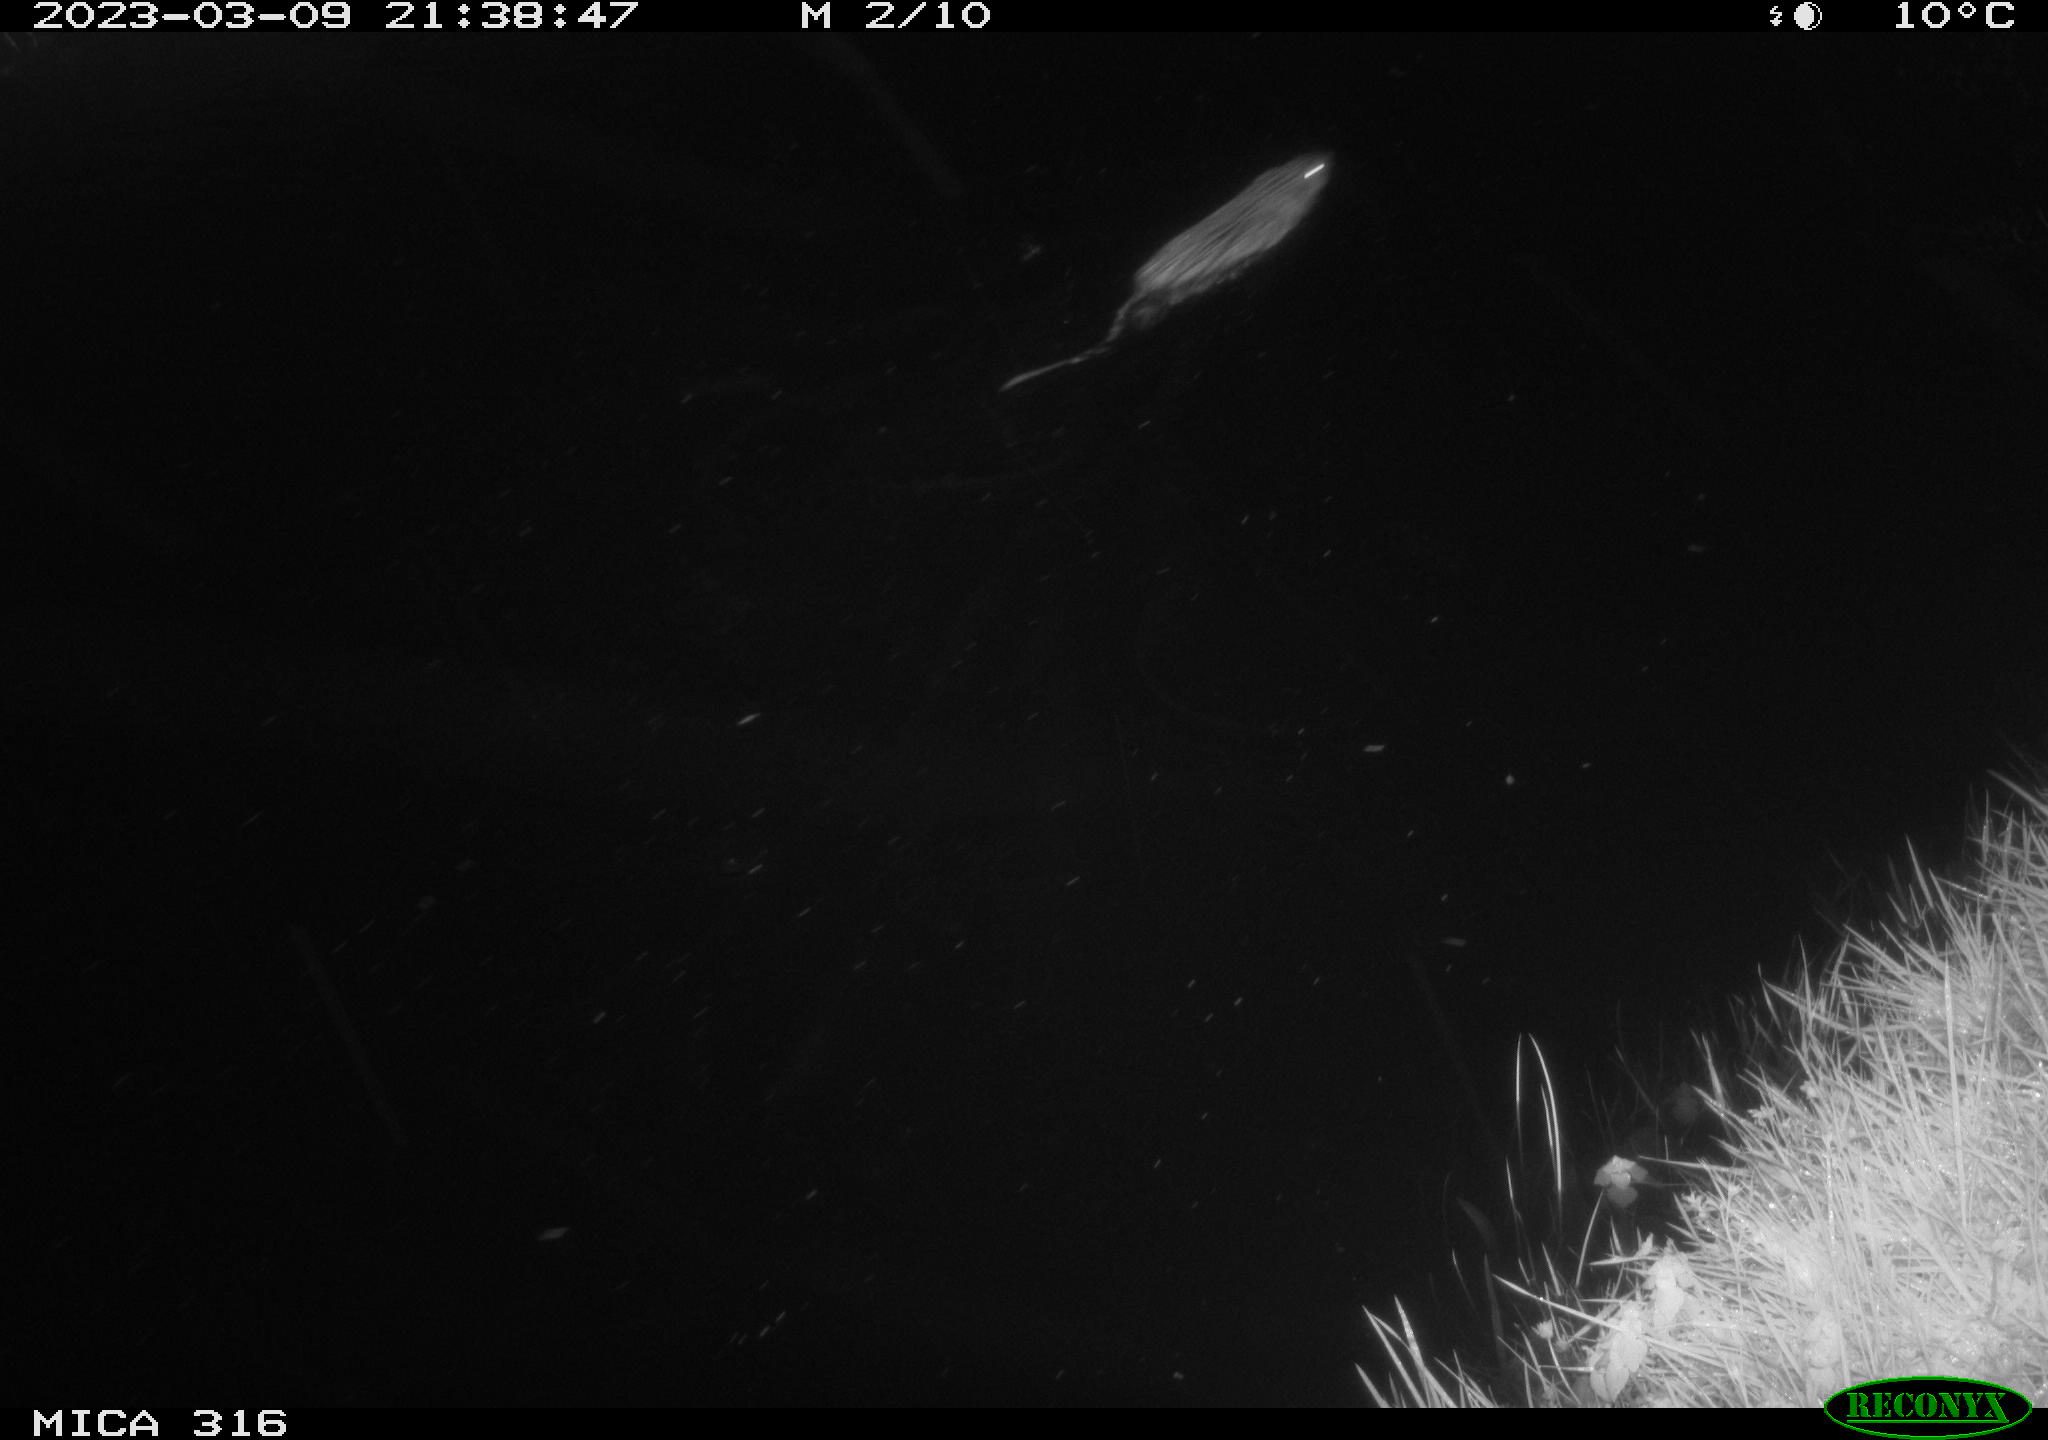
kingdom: Animalia
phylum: Chordata
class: Mammalia
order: Rodentia
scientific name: Rodentia
